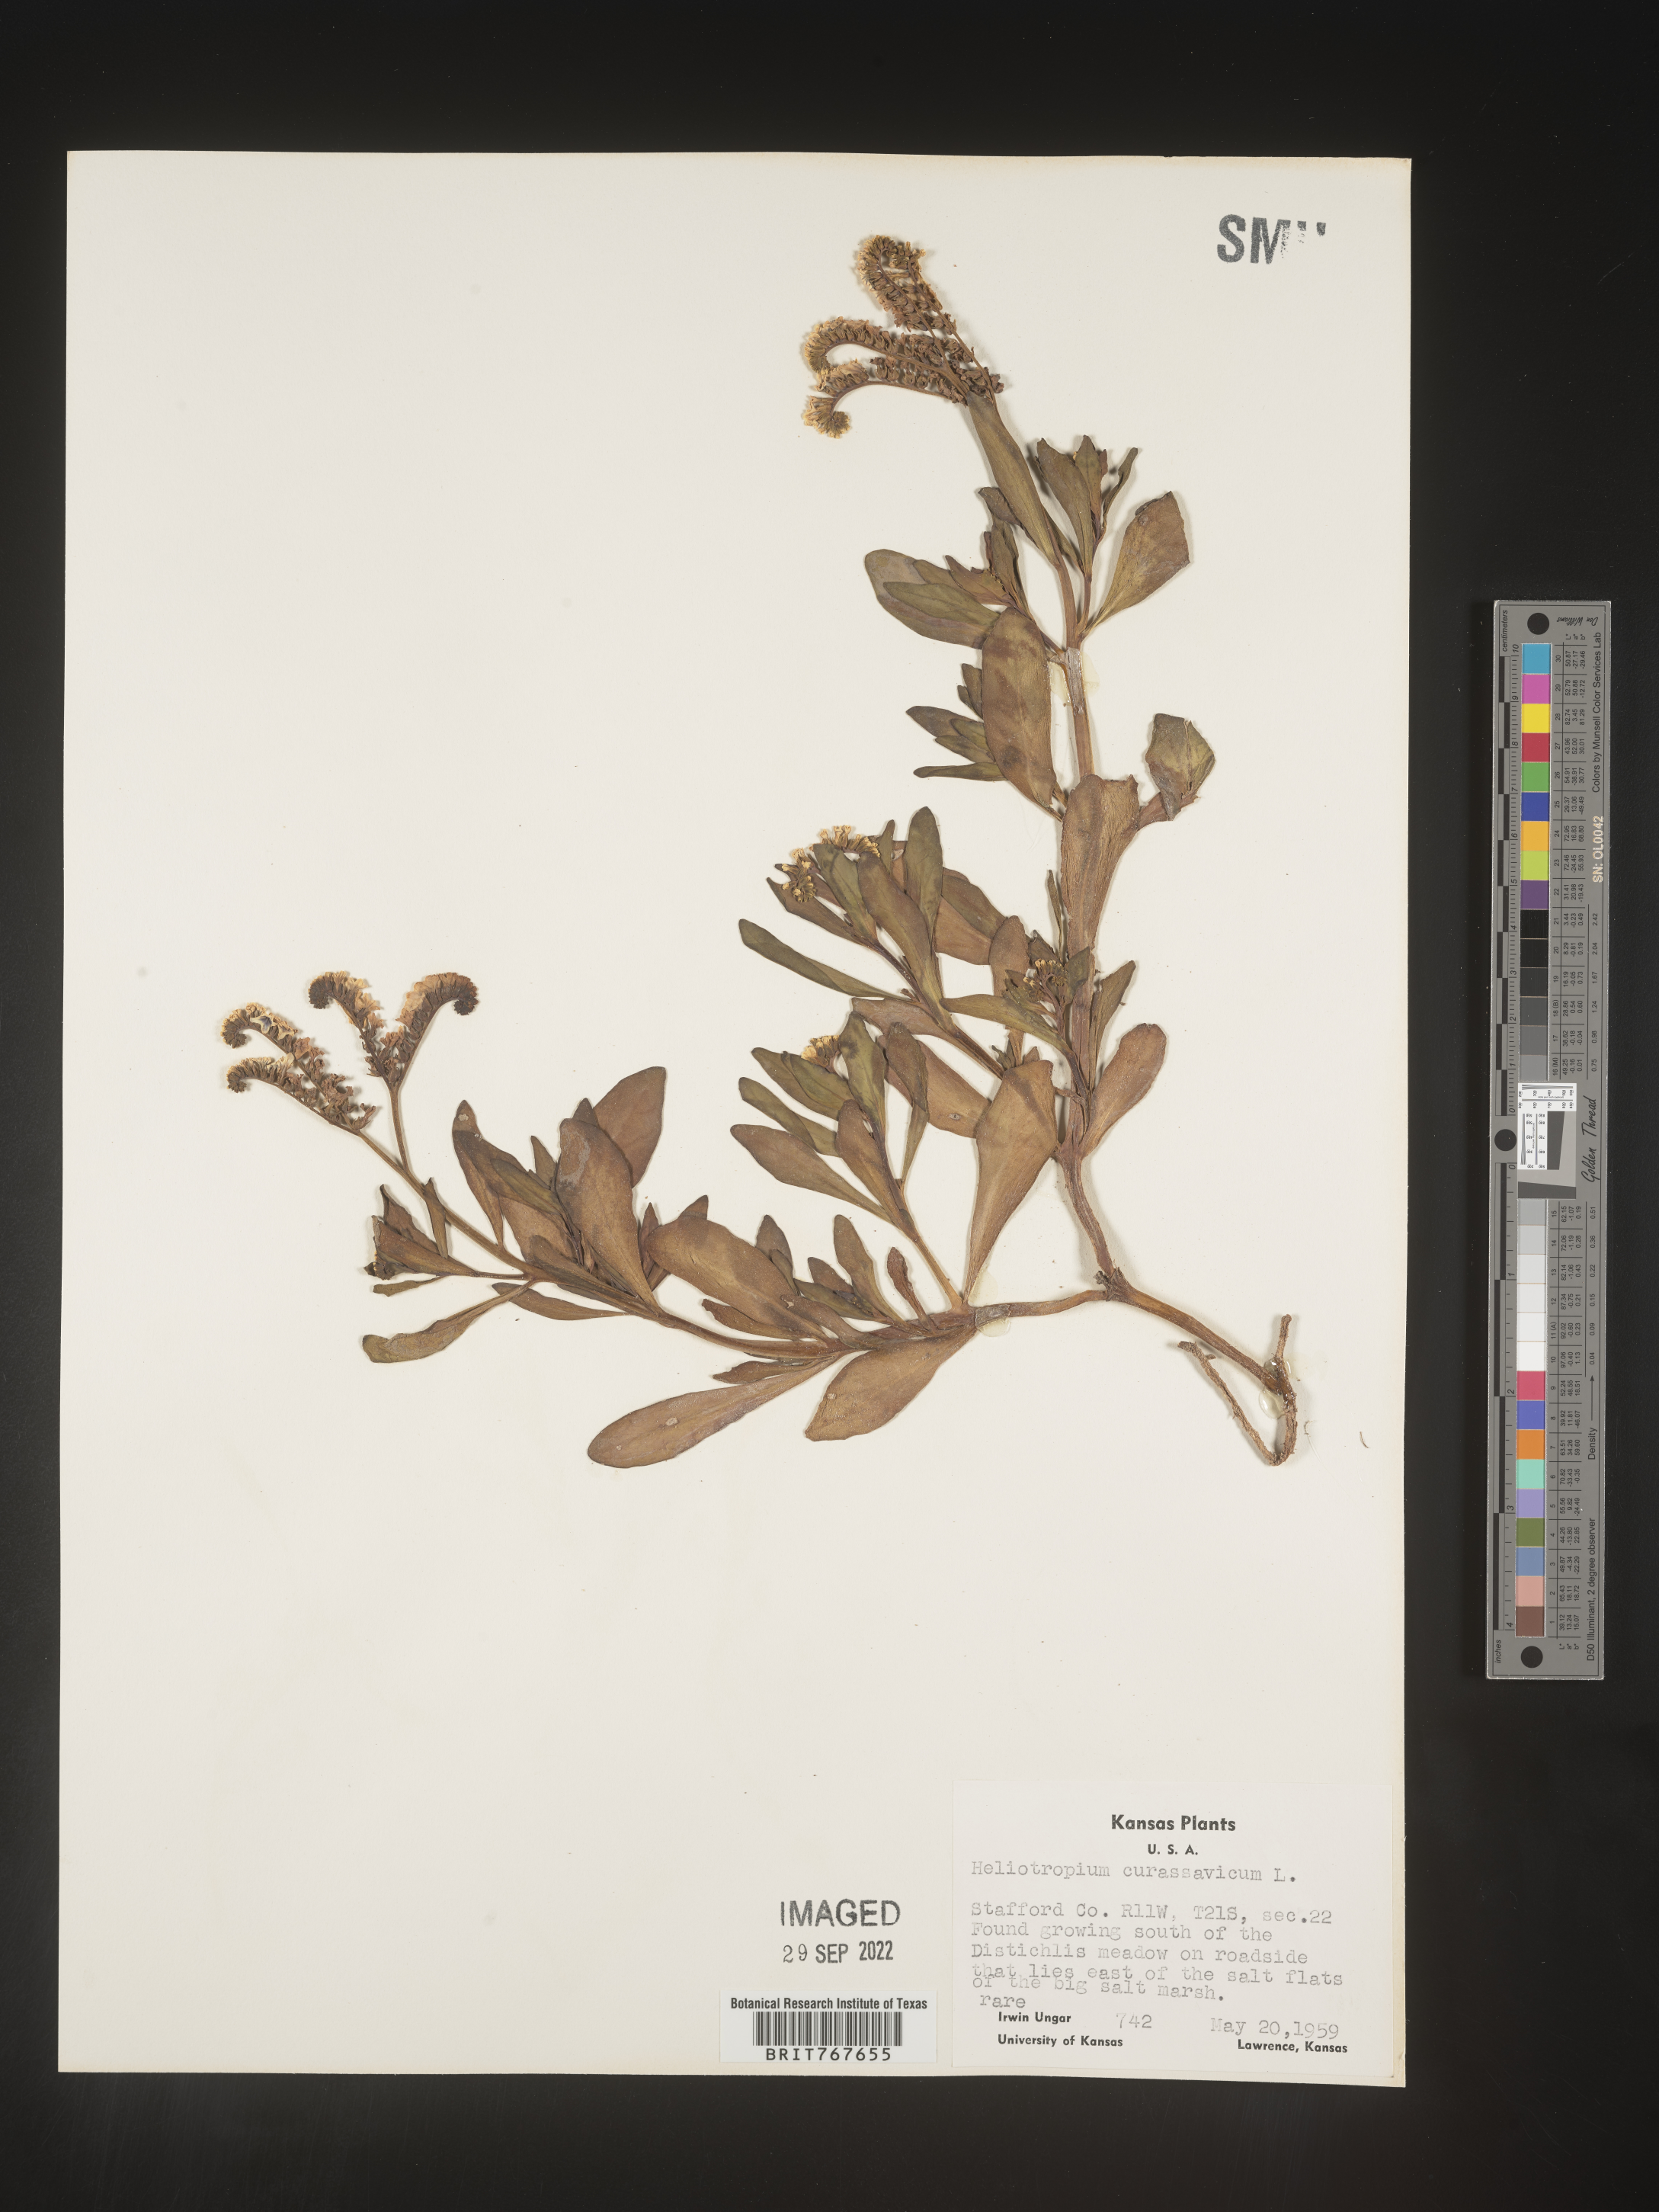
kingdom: Plantae
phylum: Tracheophyta
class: Magnoliopsida
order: Boraginales
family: Heliotropiaceae
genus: Heliotropium
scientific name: Heliotropium curassavicum
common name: Seaside heliotrope
